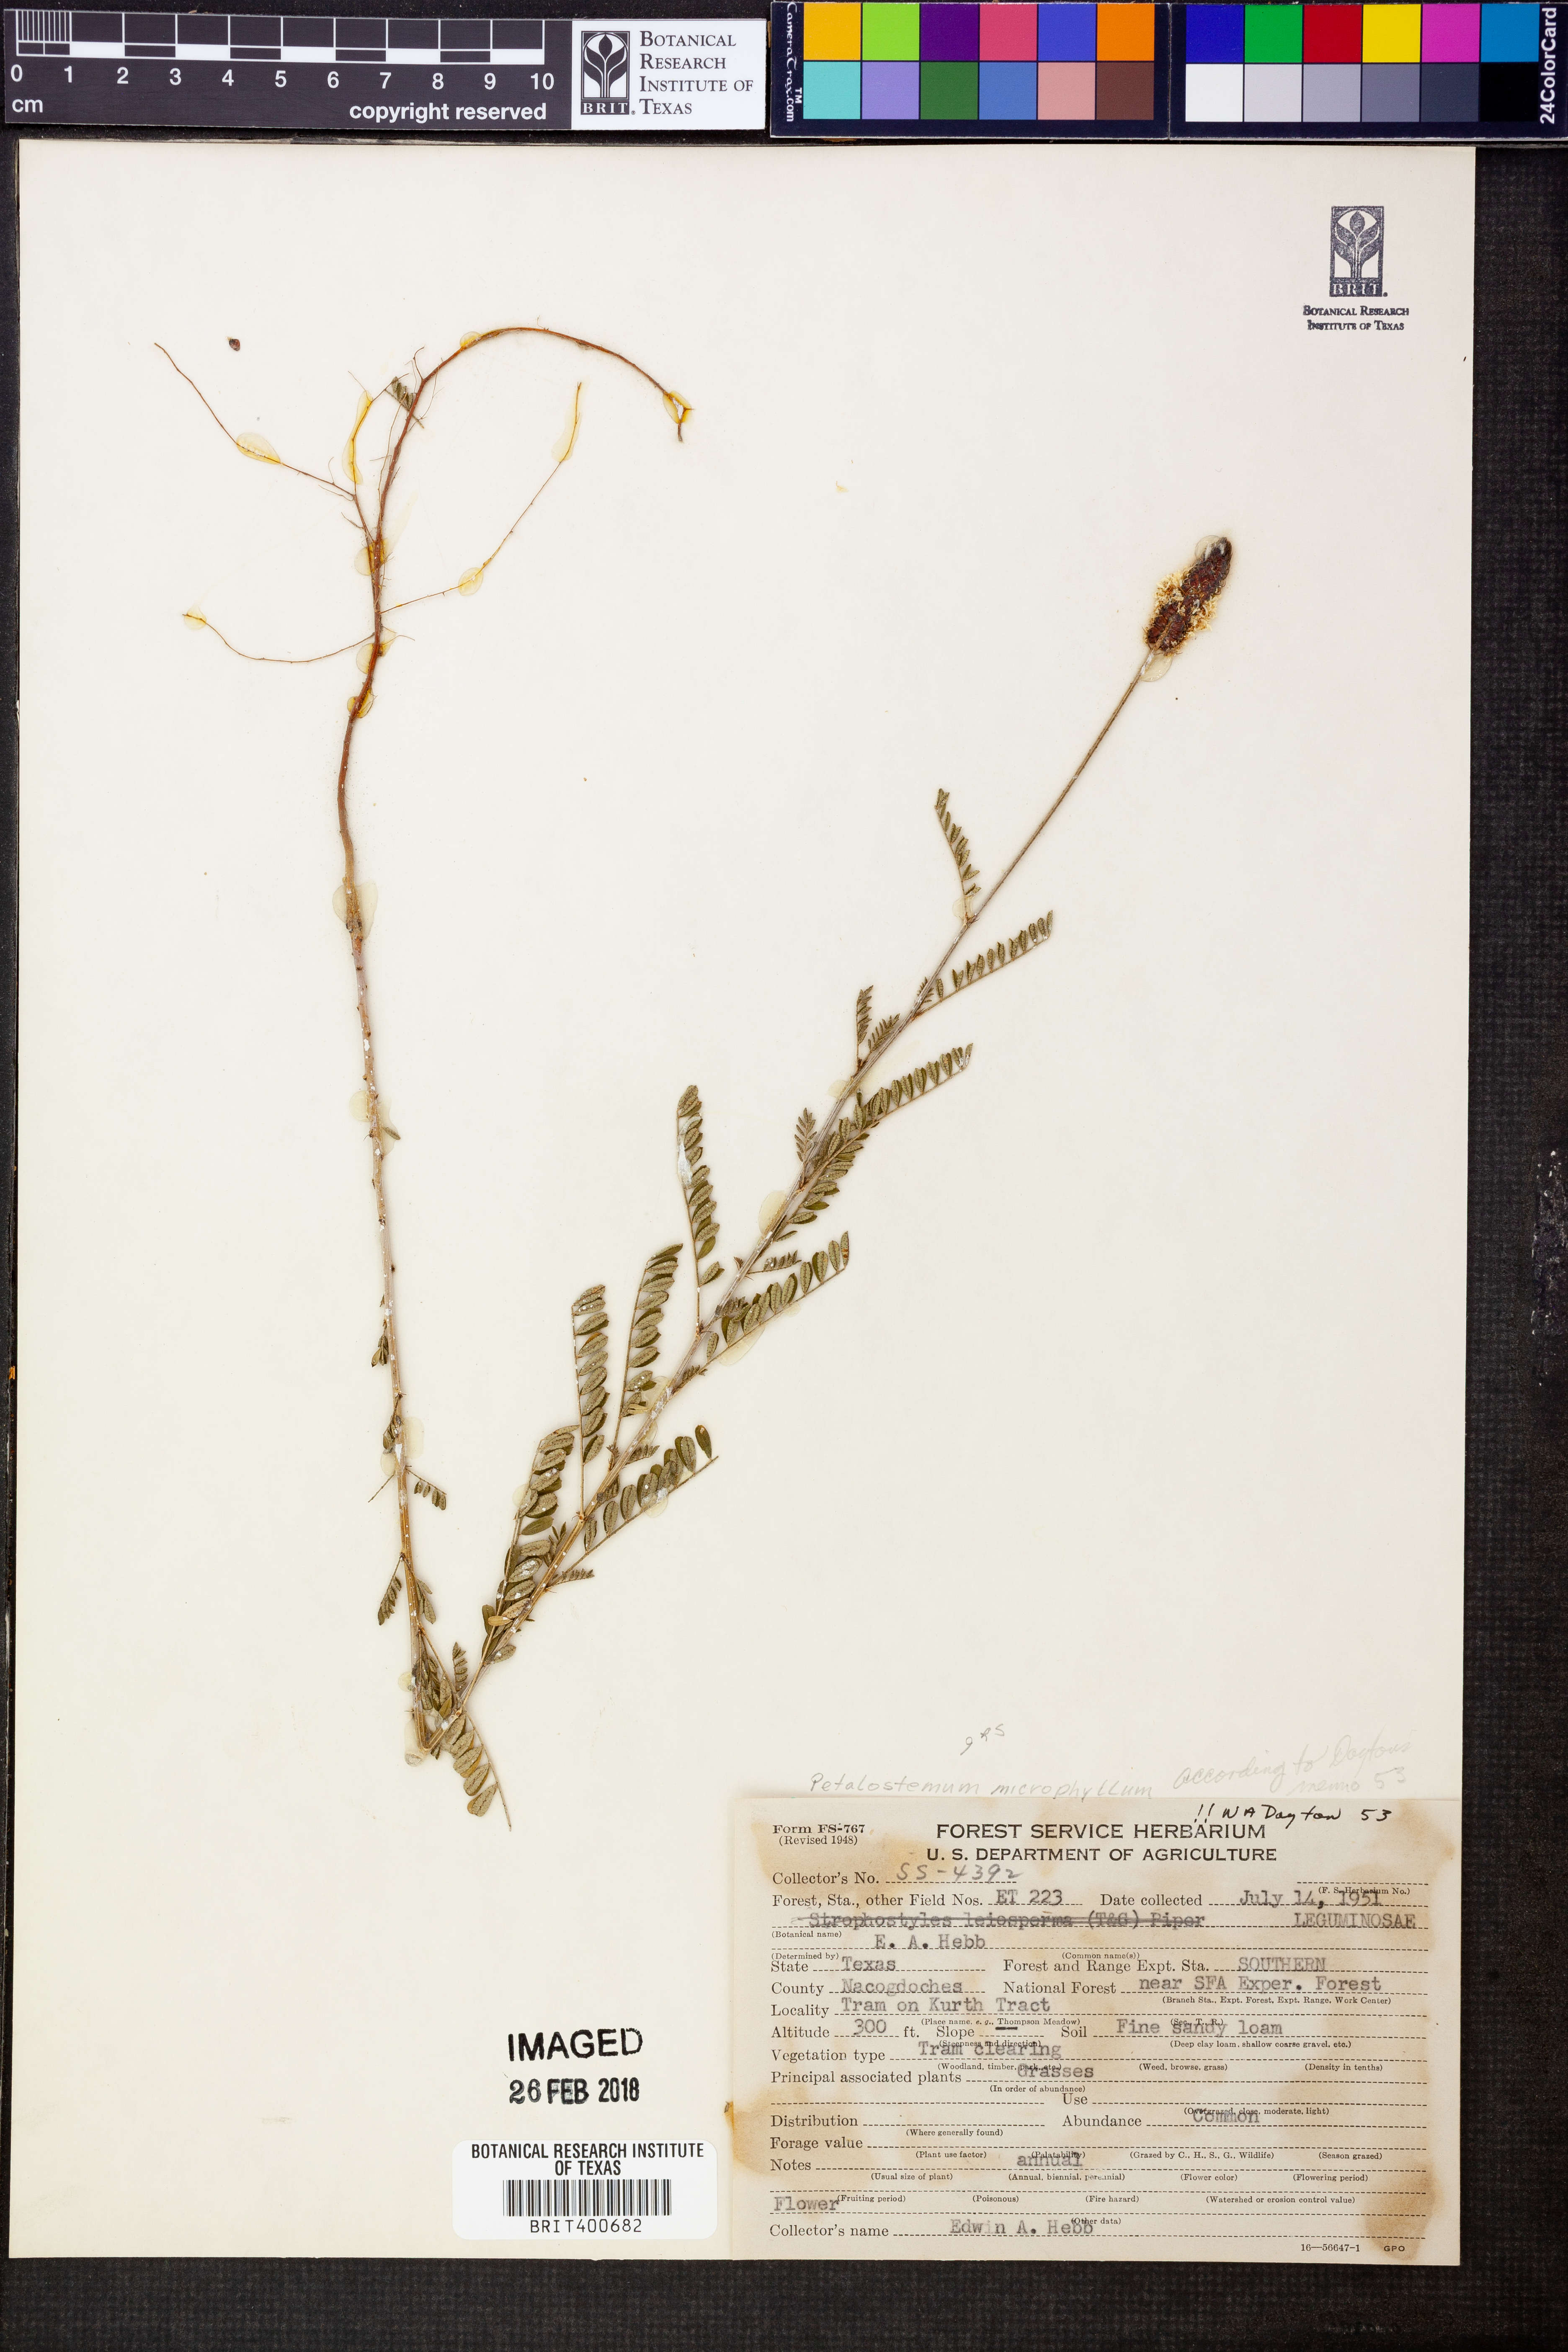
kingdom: Plantae
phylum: Tracheophyta
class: Magnoliopsida
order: Fabales
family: Fabaceae
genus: Dalea
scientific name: Dalea drummondiana
